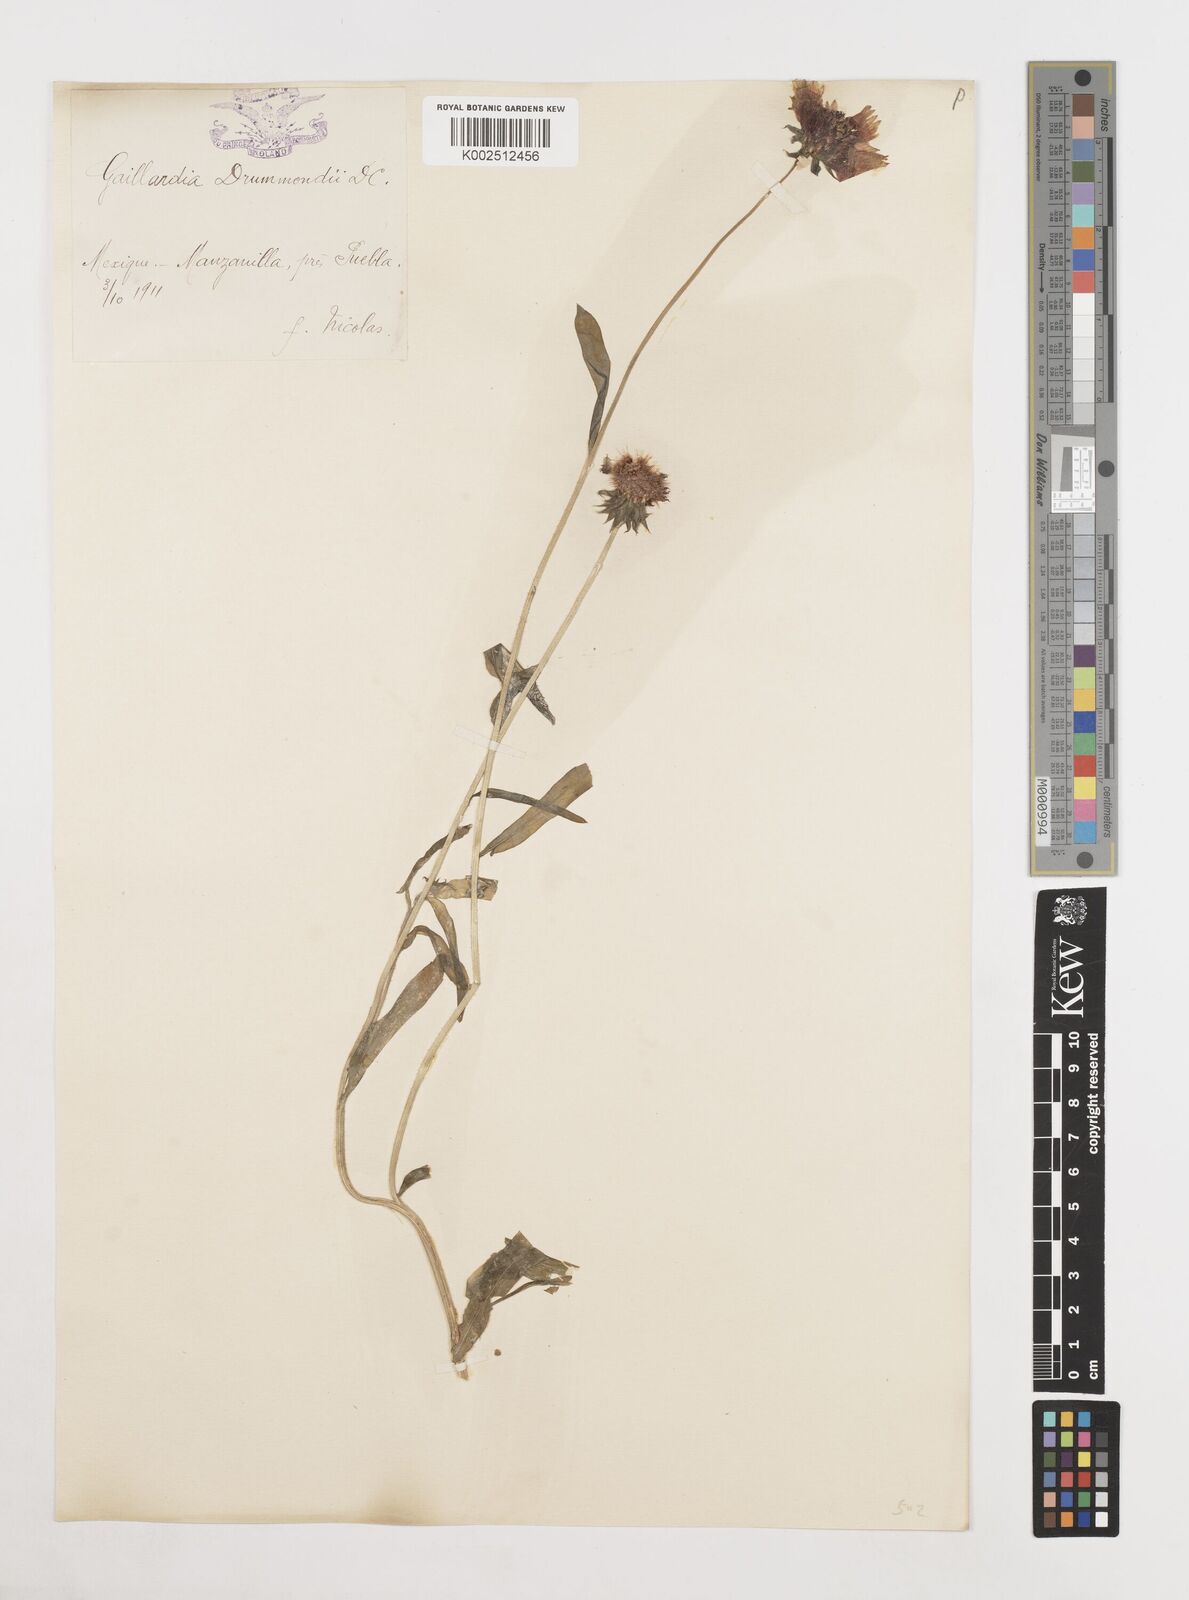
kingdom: Plantae
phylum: Tracheophyta
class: Magnoliopsida
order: Asterales
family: Asteraceae
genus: Gaillardia
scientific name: Gaillardia pulchella
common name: Firewheel
